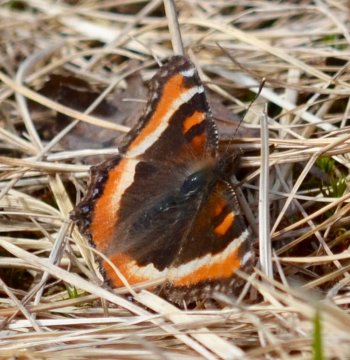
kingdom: Animalia
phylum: Arthropoda
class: Insecta
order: Lepidoptera
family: Nymphalidae
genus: Aglais
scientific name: Aglais milberti
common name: Milbert's Tortoiseshell
